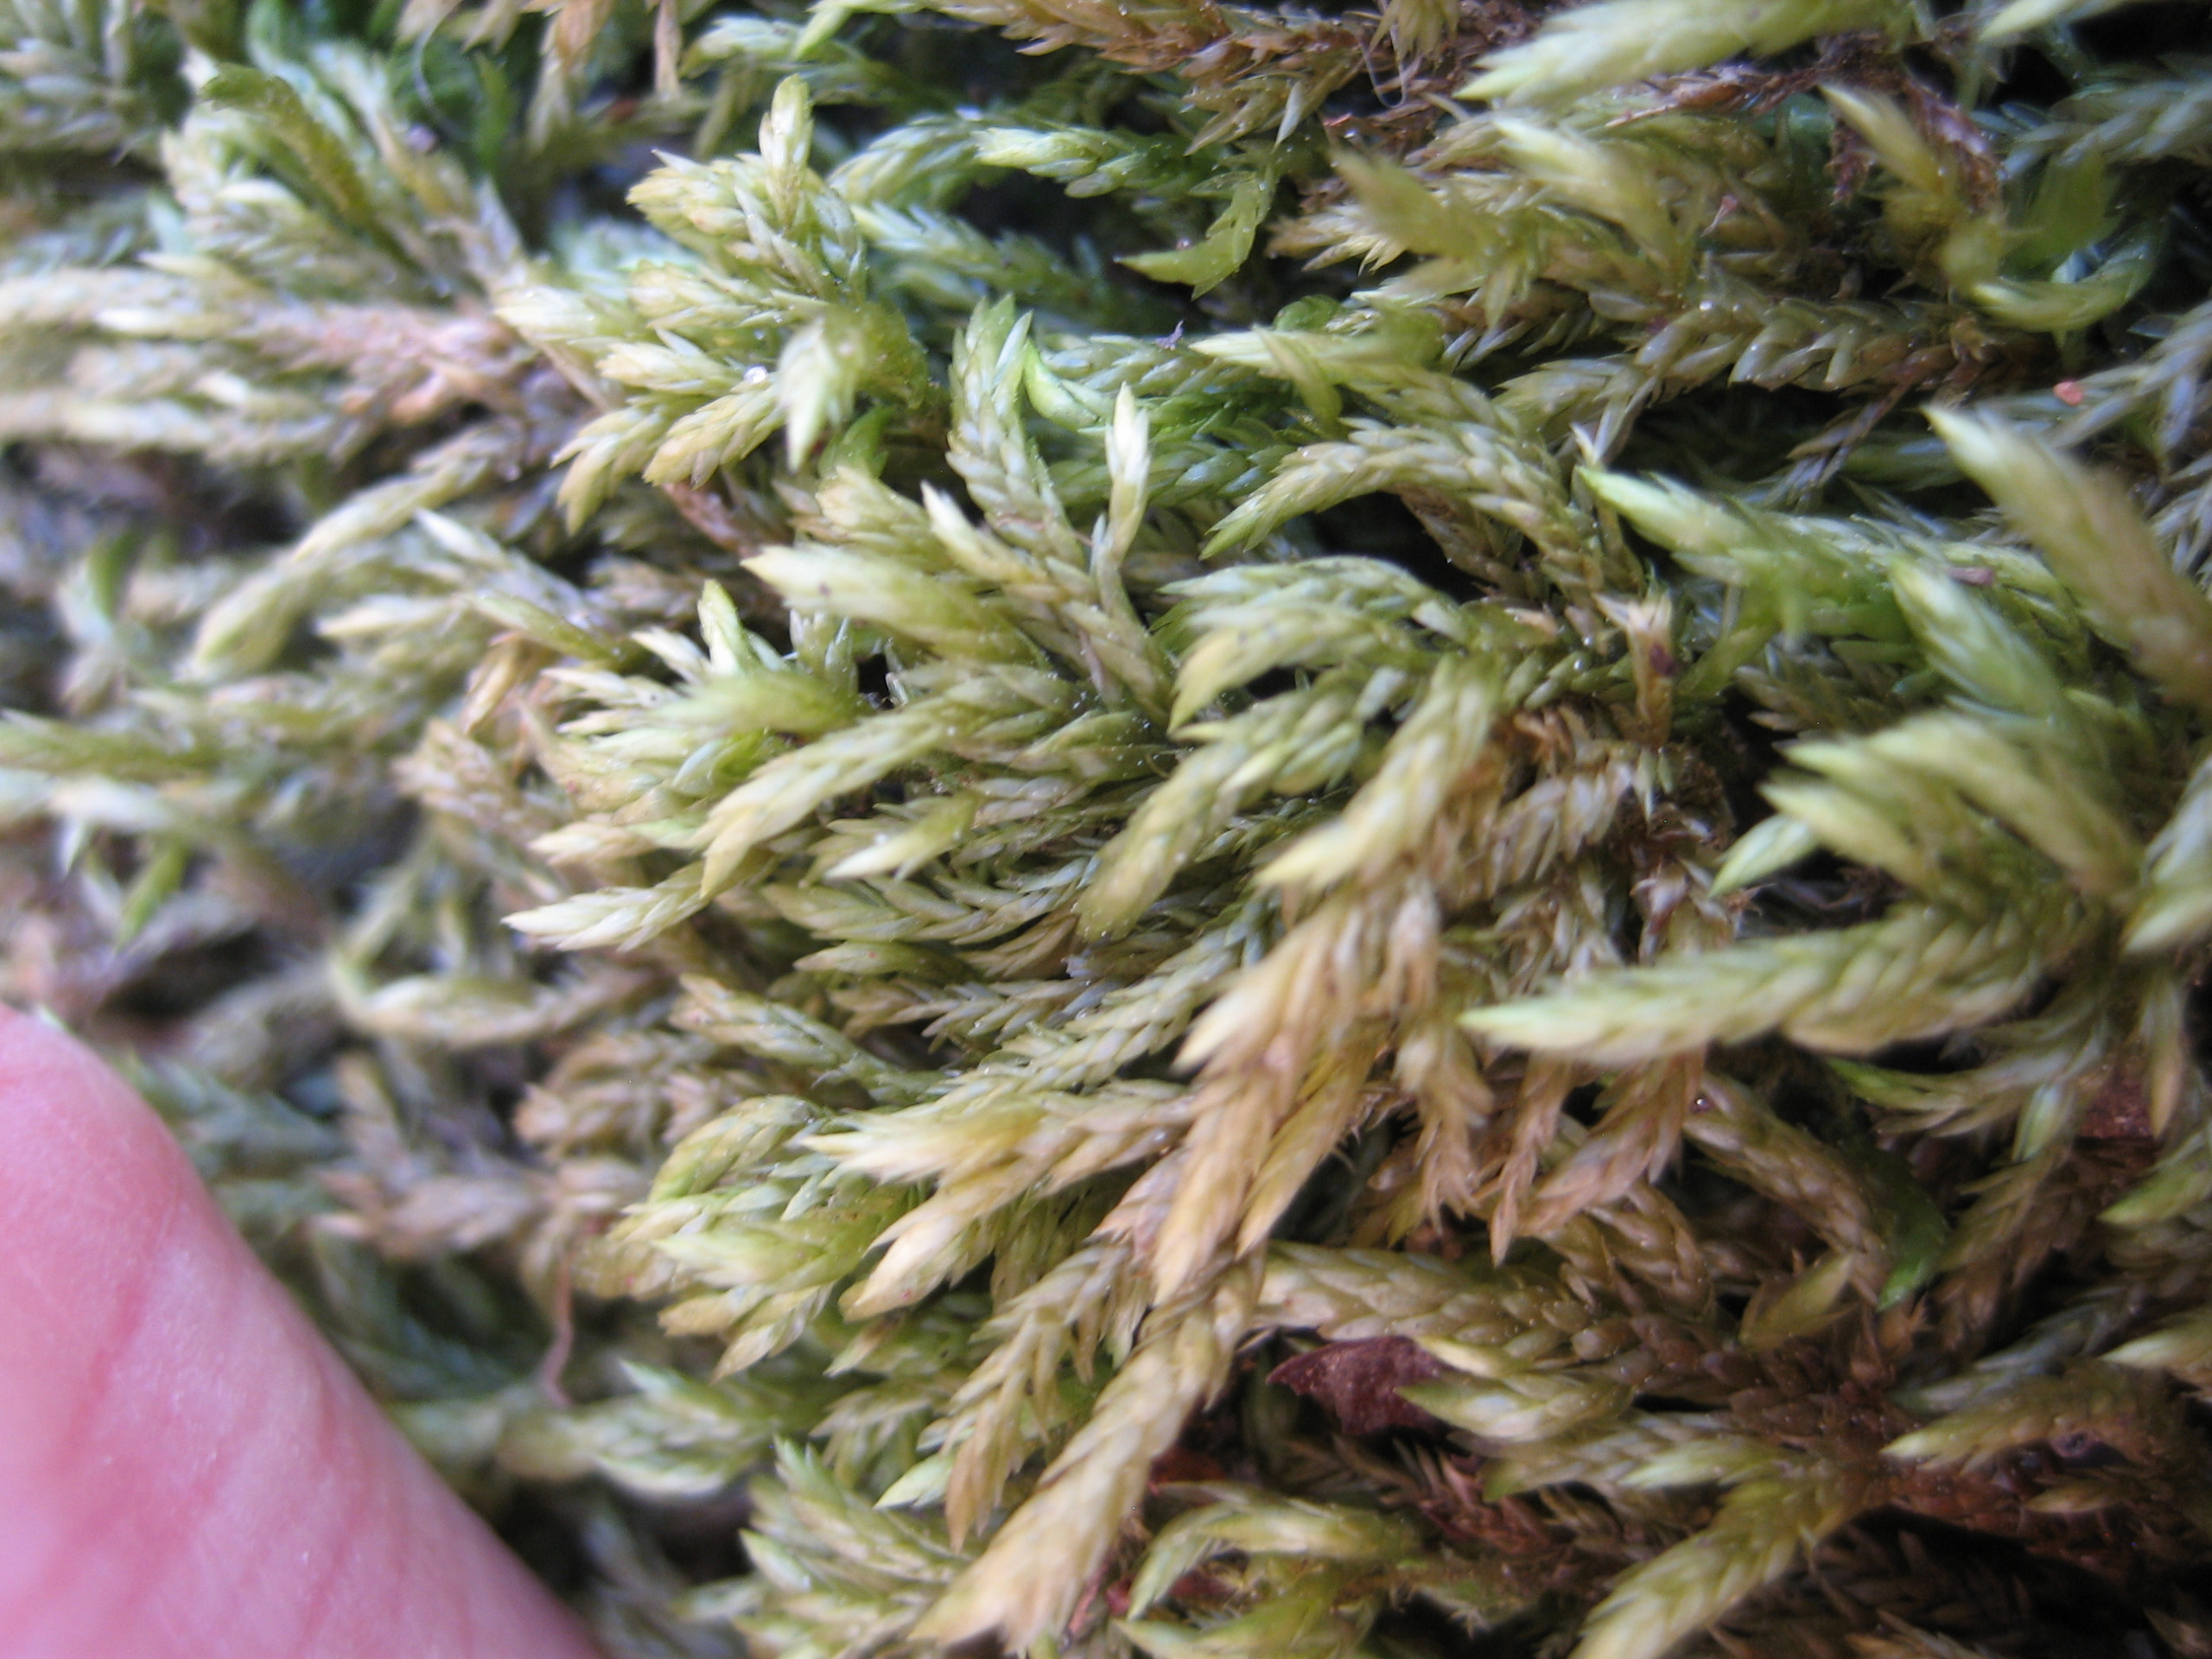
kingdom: Plantae
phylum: Bryophyta
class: Bryopsida
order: Hypnales
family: Lembophyllaceae
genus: Isothecium
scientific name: Isothecium alopecuroides
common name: Stor stammemos
